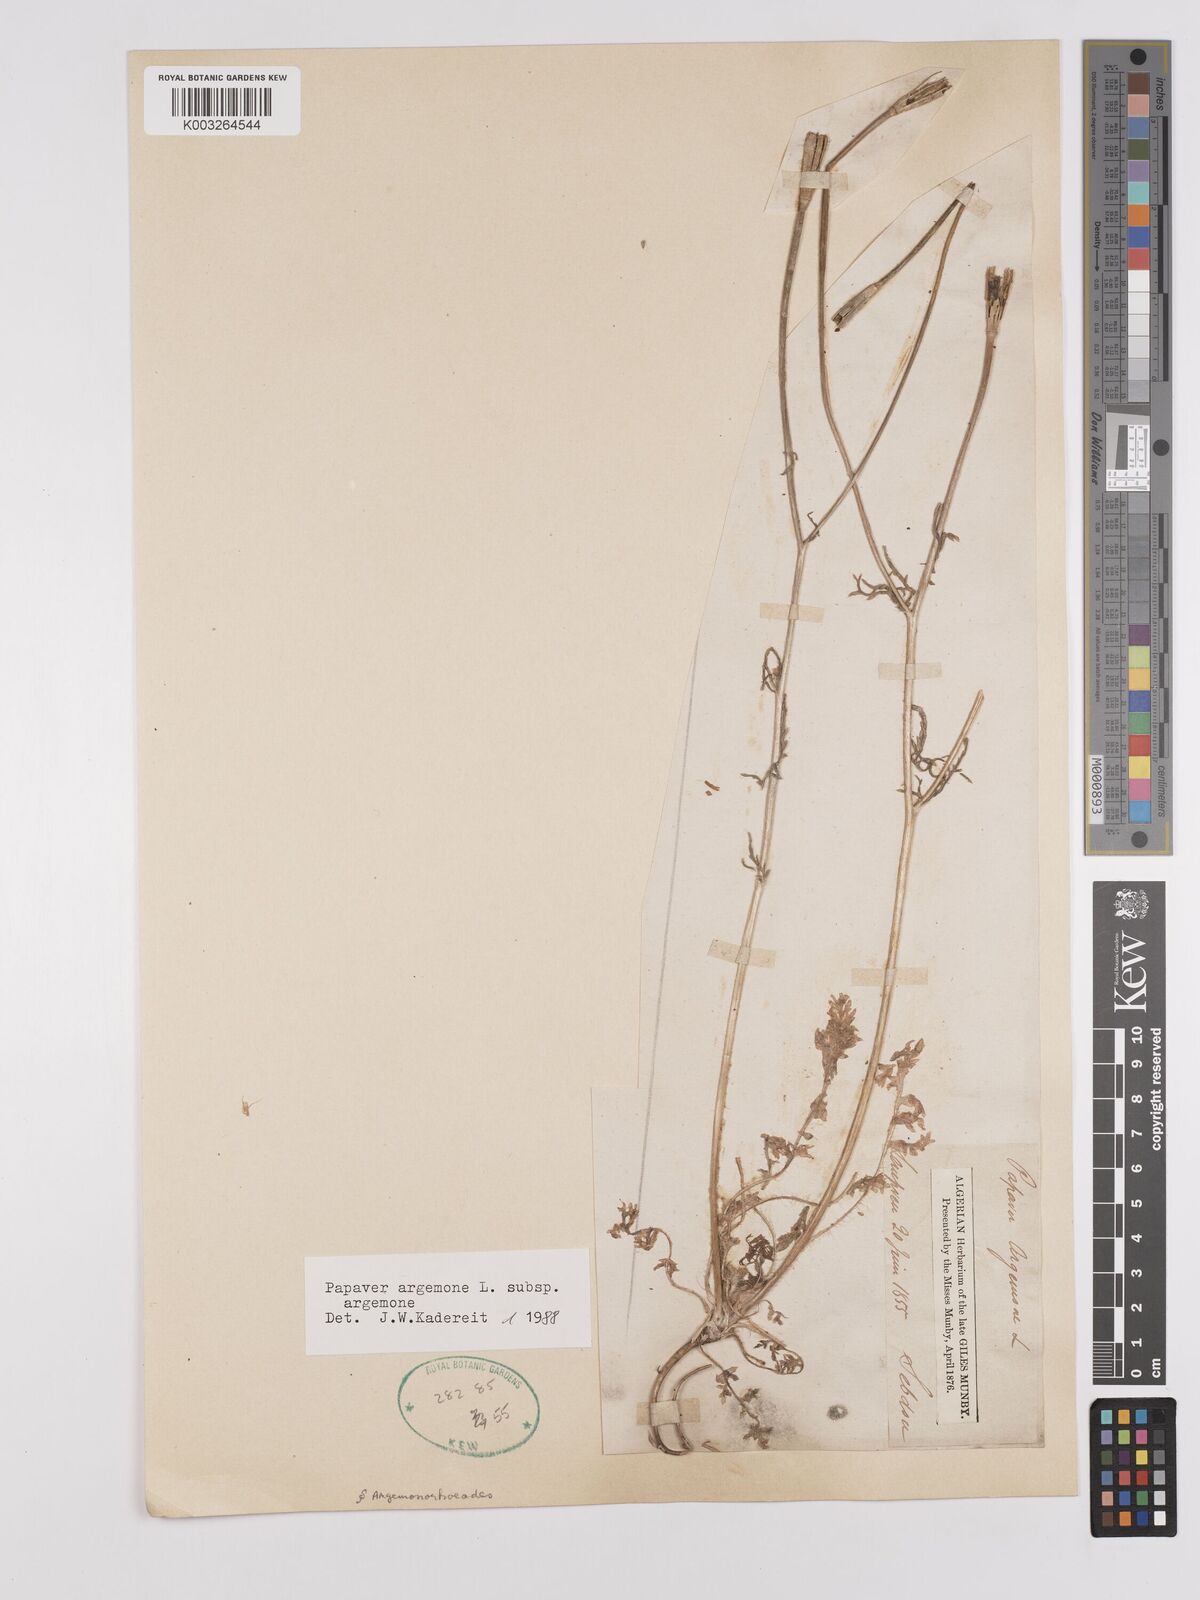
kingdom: Plantae
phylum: Tracheophyta
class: Magnoliopsida
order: Ranunculales
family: Papaveraceae
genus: Roemeria
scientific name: Roemeria argemone
